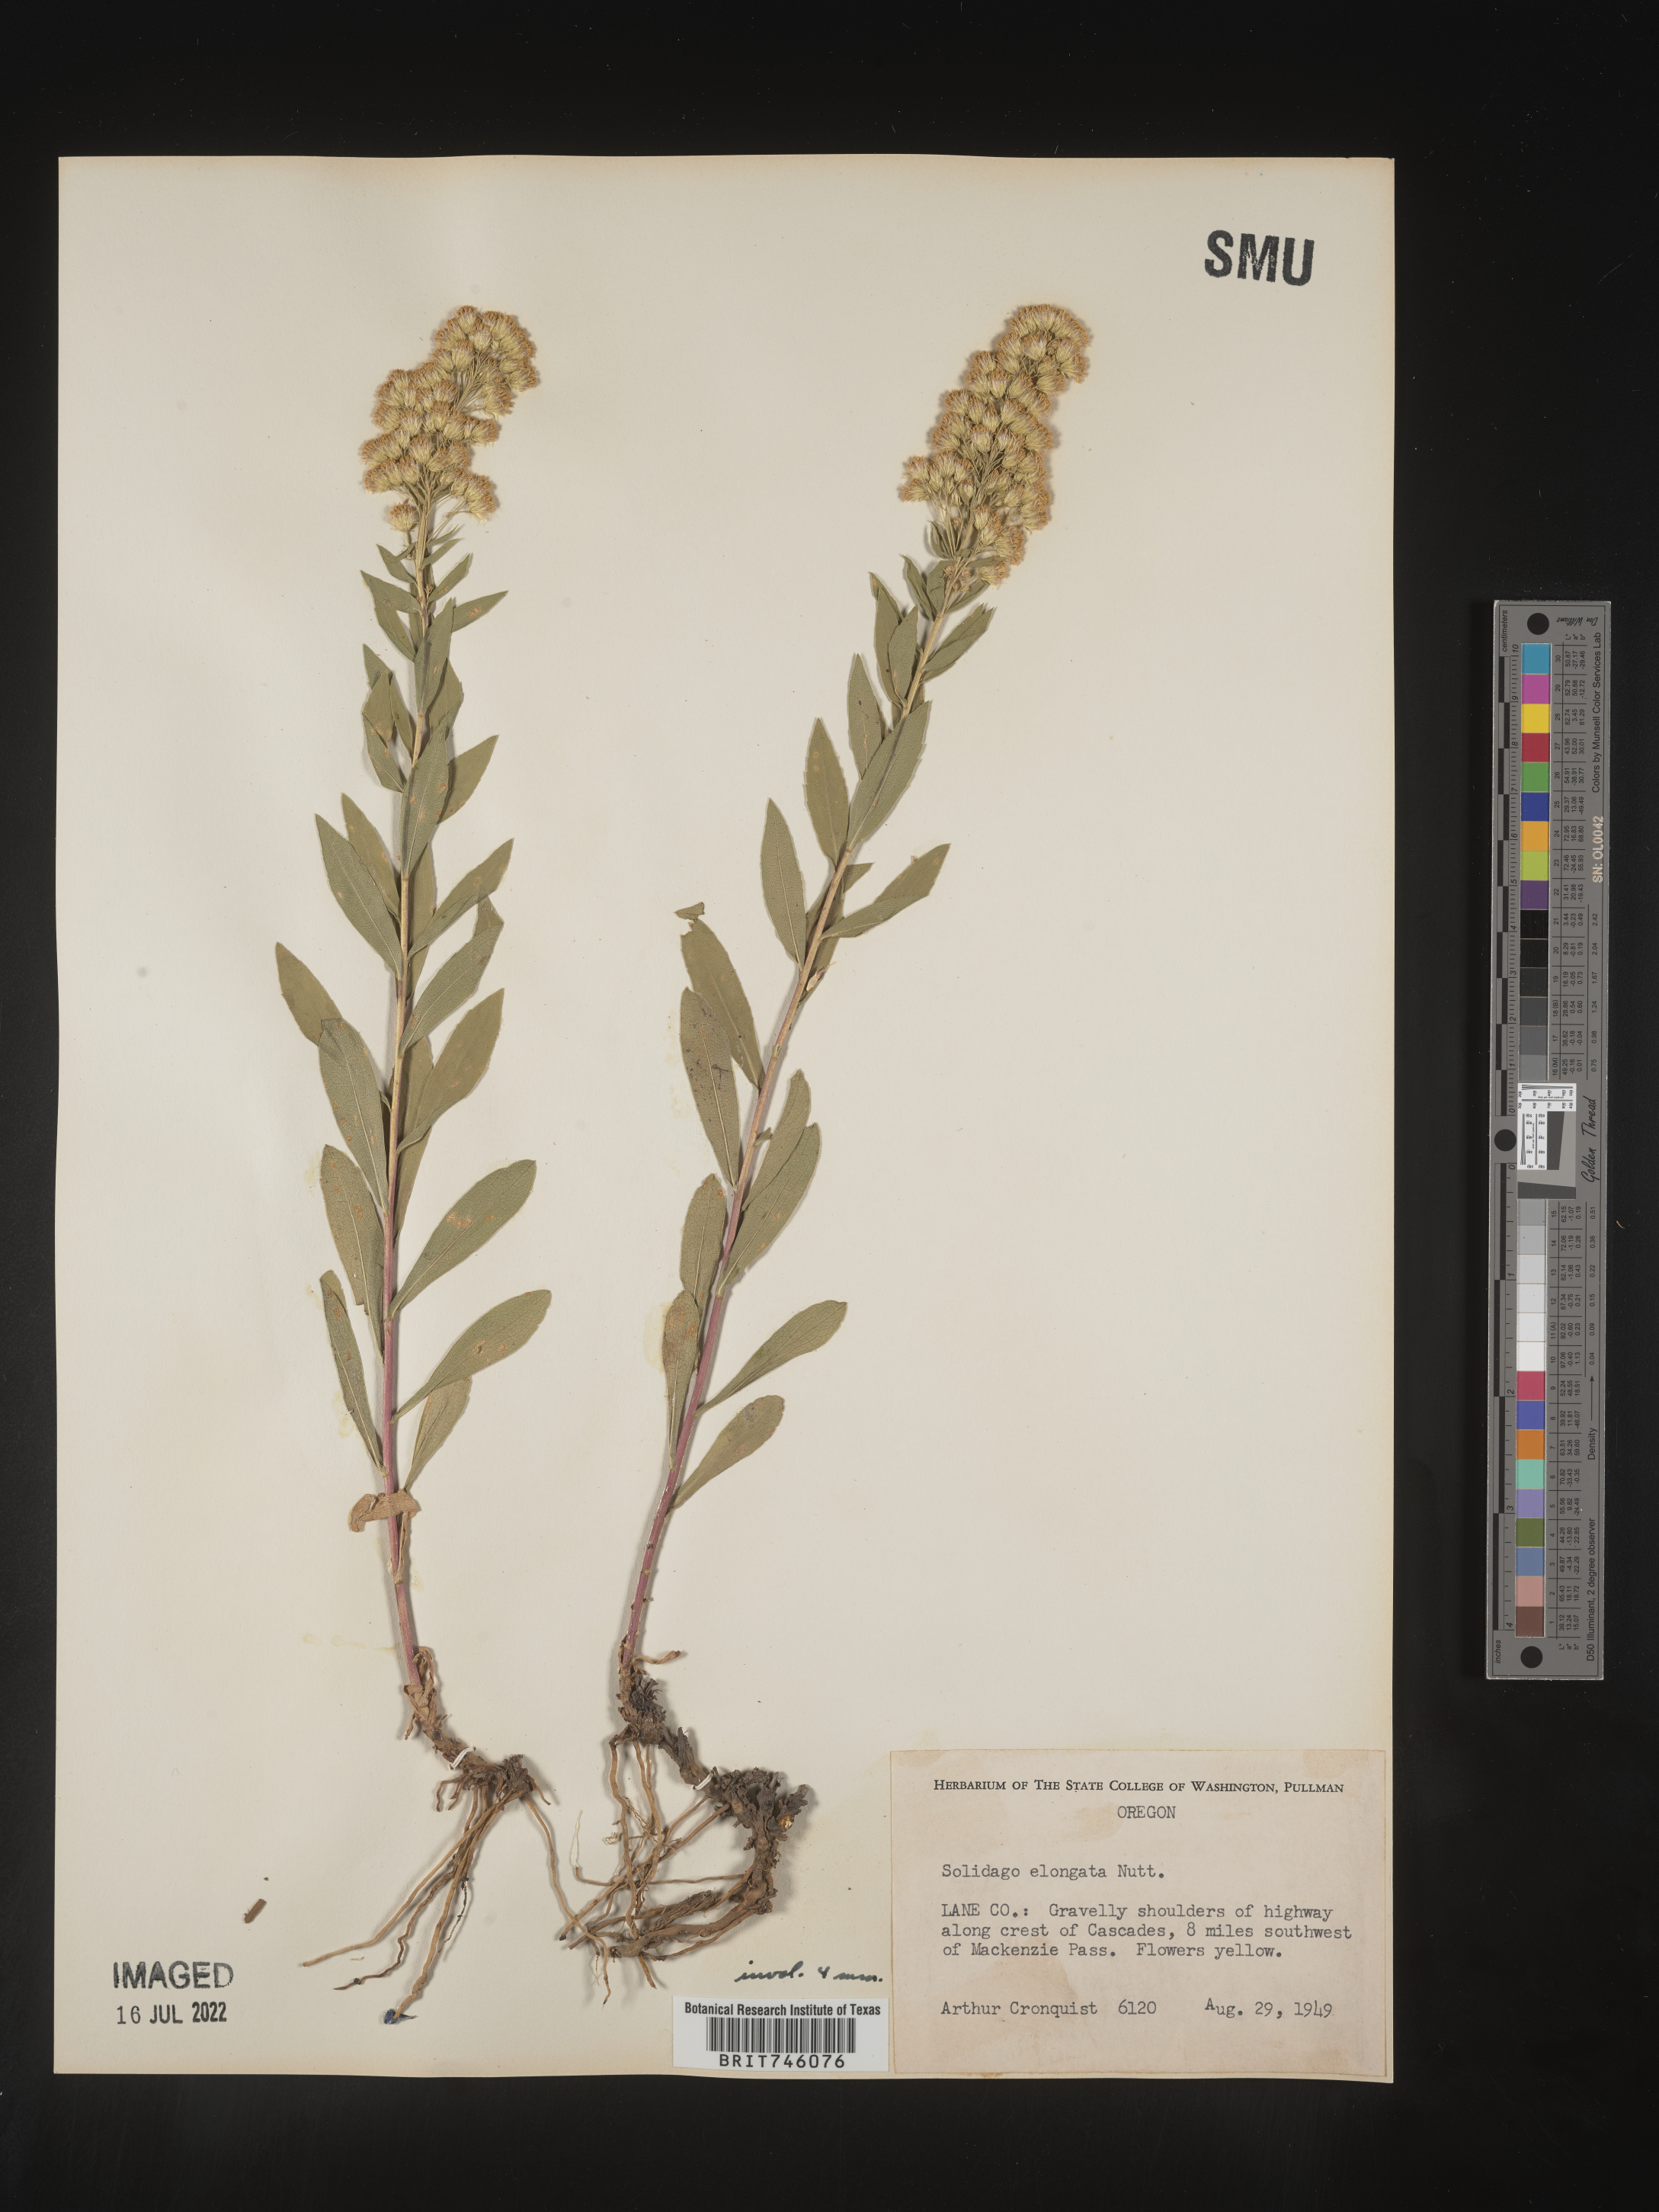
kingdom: Plantae
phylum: Tracheophyta
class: Magnoliopsida
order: Asterales
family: Asteraceae
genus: Solidago
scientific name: Solidago elongata
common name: Cascade canada goldenrod
